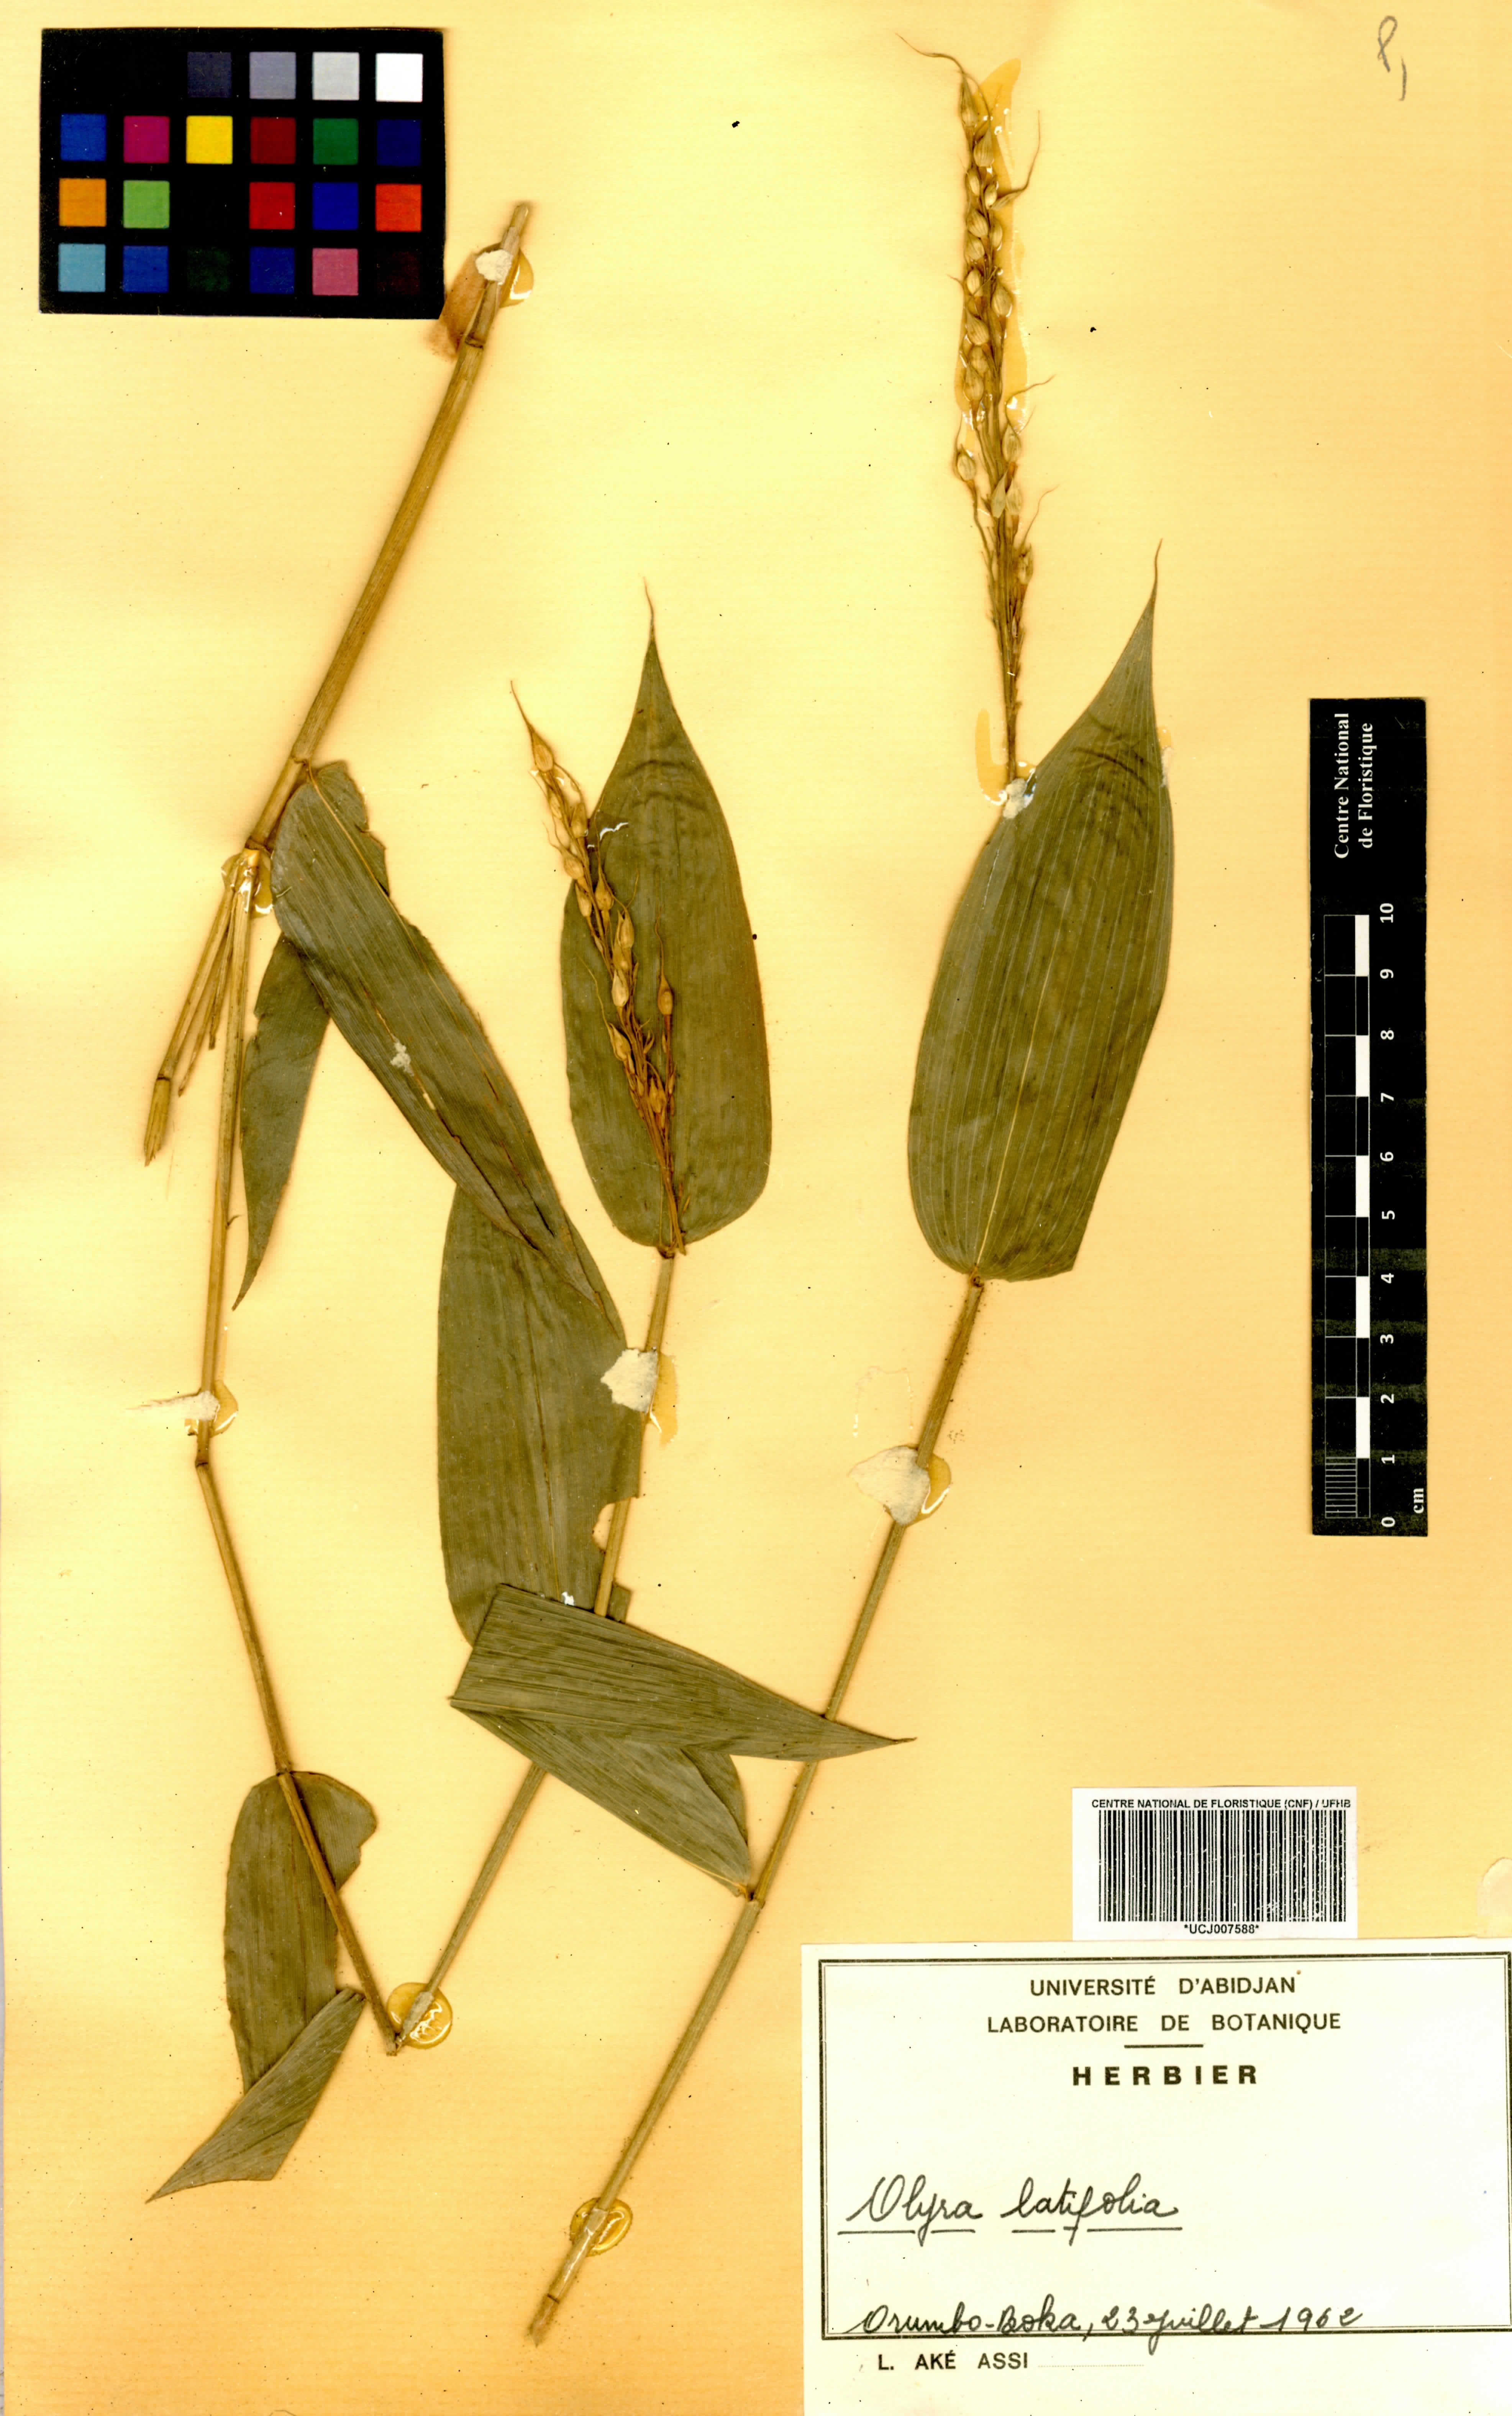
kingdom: Plantae
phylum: Tracheophyta
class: Liliopsida
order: Poales
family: Poaceae
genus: Olyra
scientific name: Olyra latifolia
